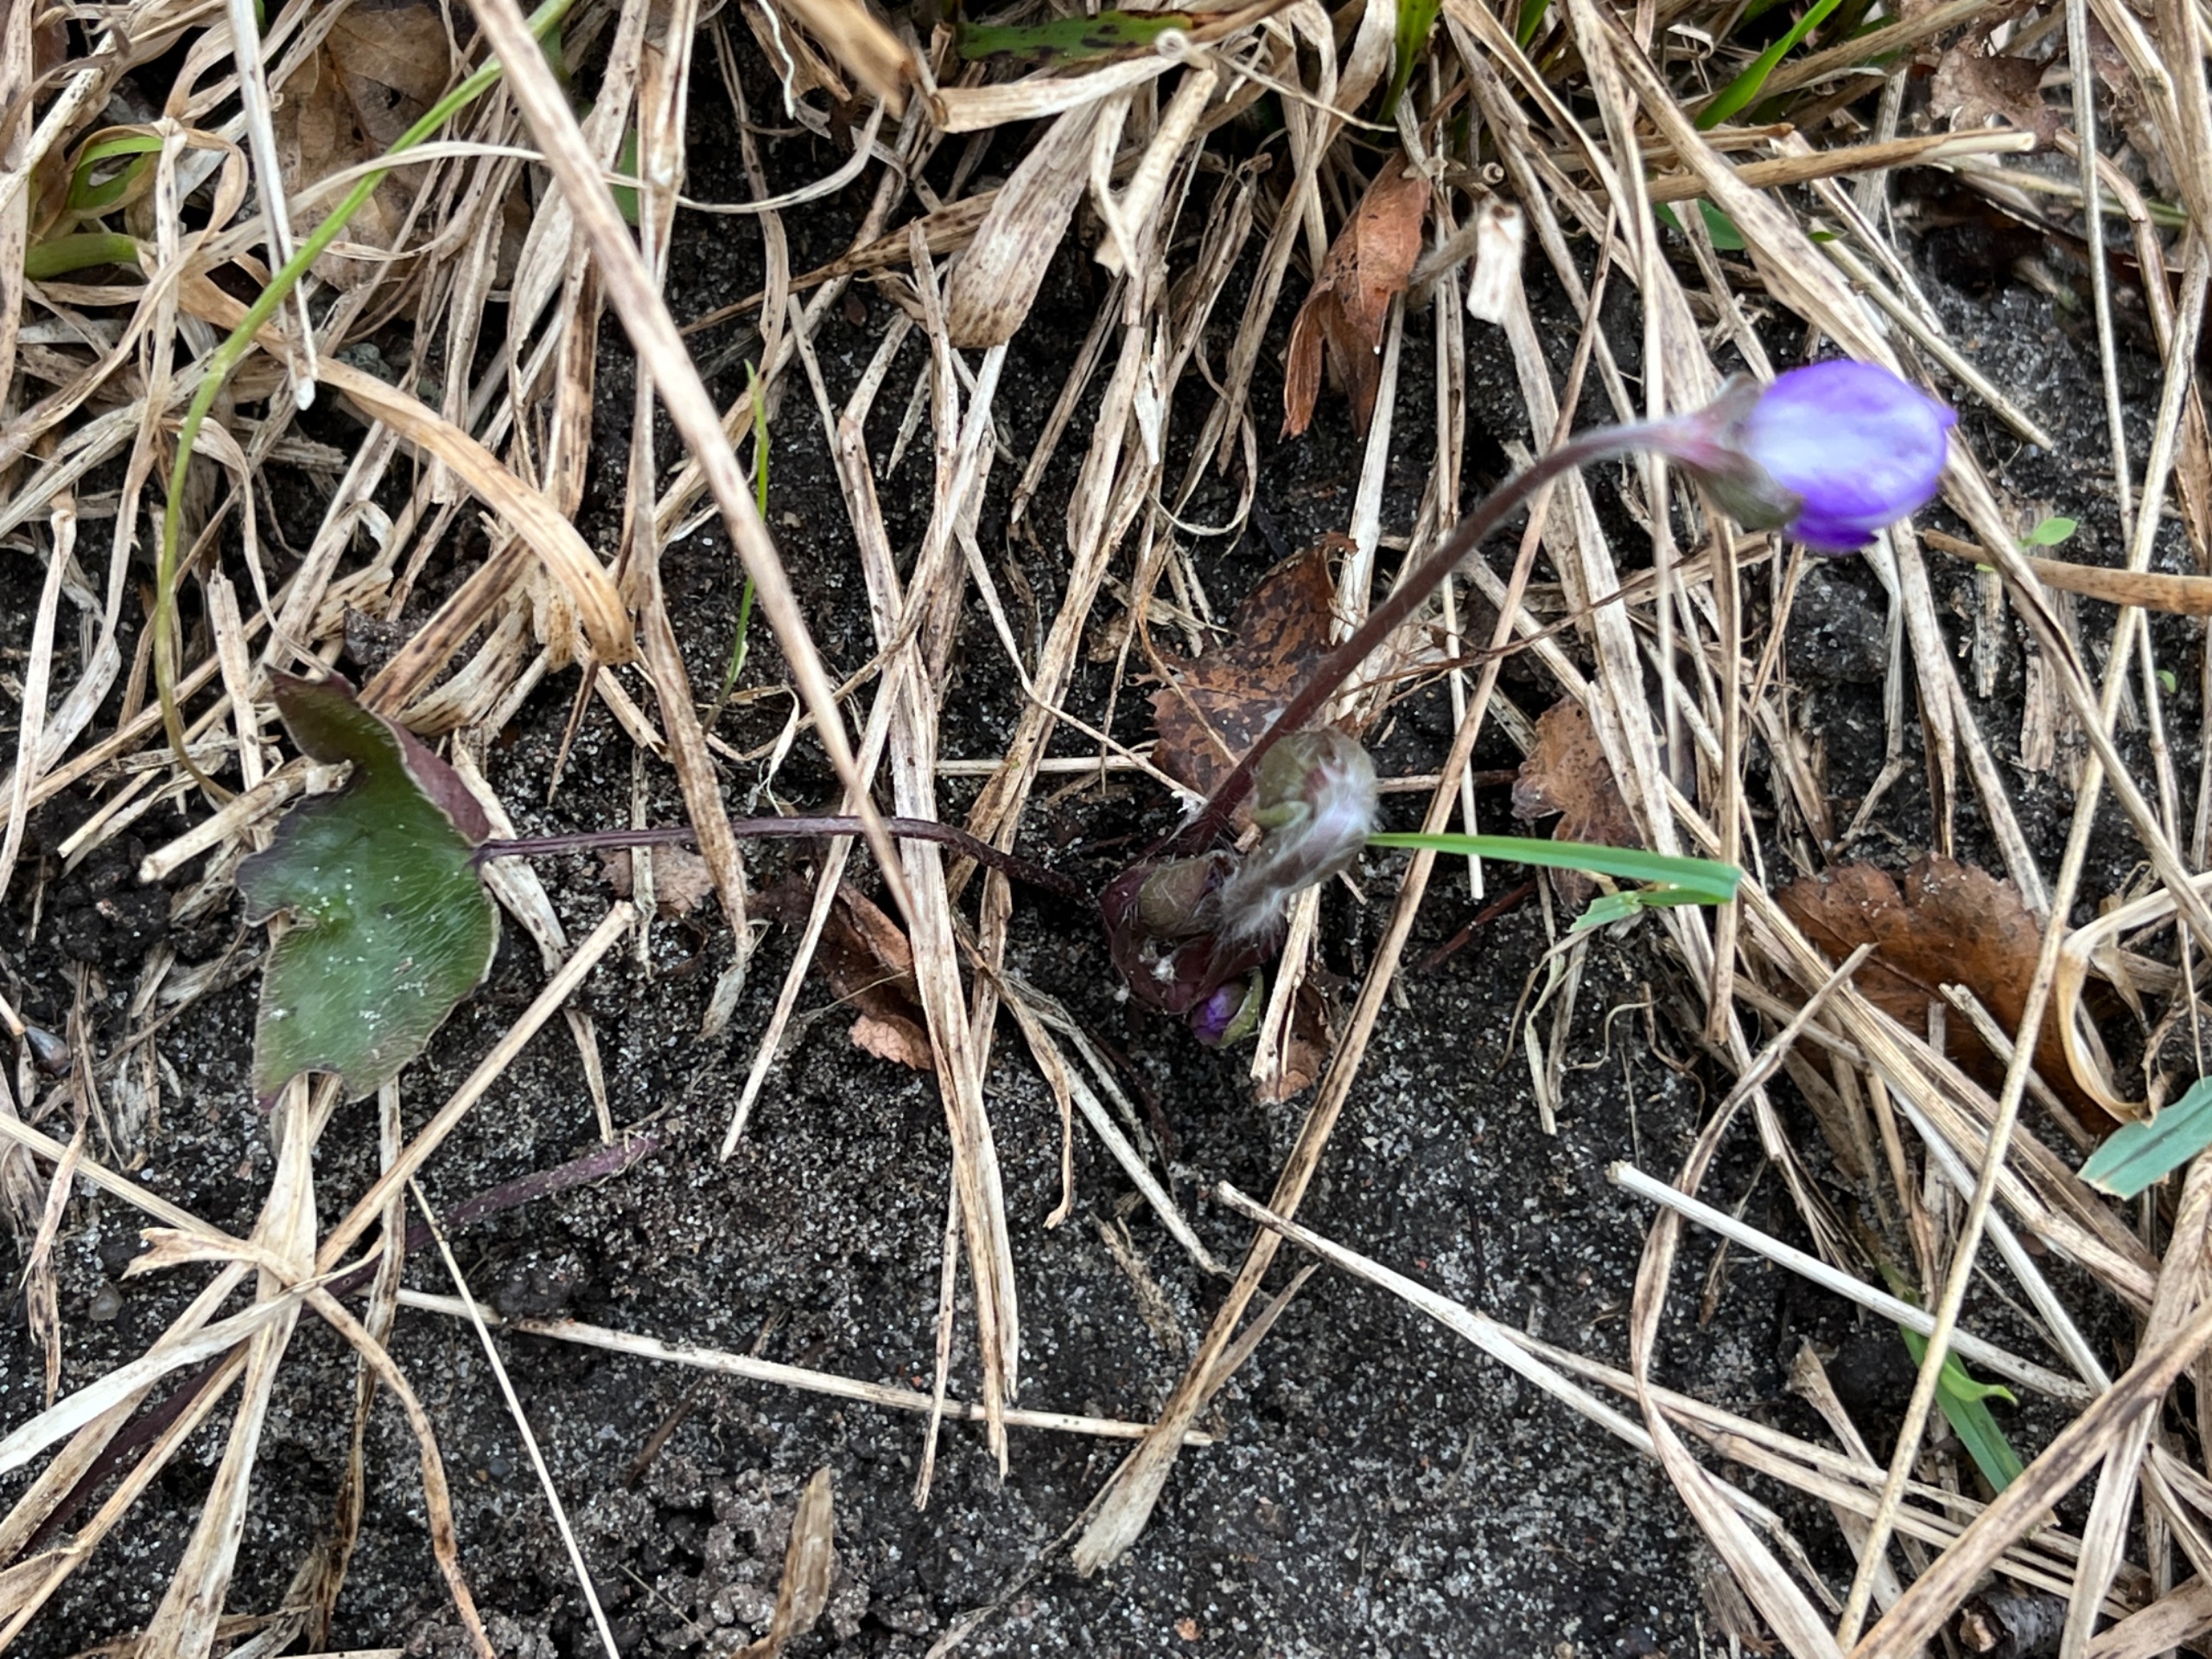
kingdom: Plantae
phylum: Tracheophyta
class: Magnoliopsida
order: Ranunculales
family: Ranunculaceae
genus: Hepatica
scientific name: Hepatica nobilis
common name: Blå anemone
